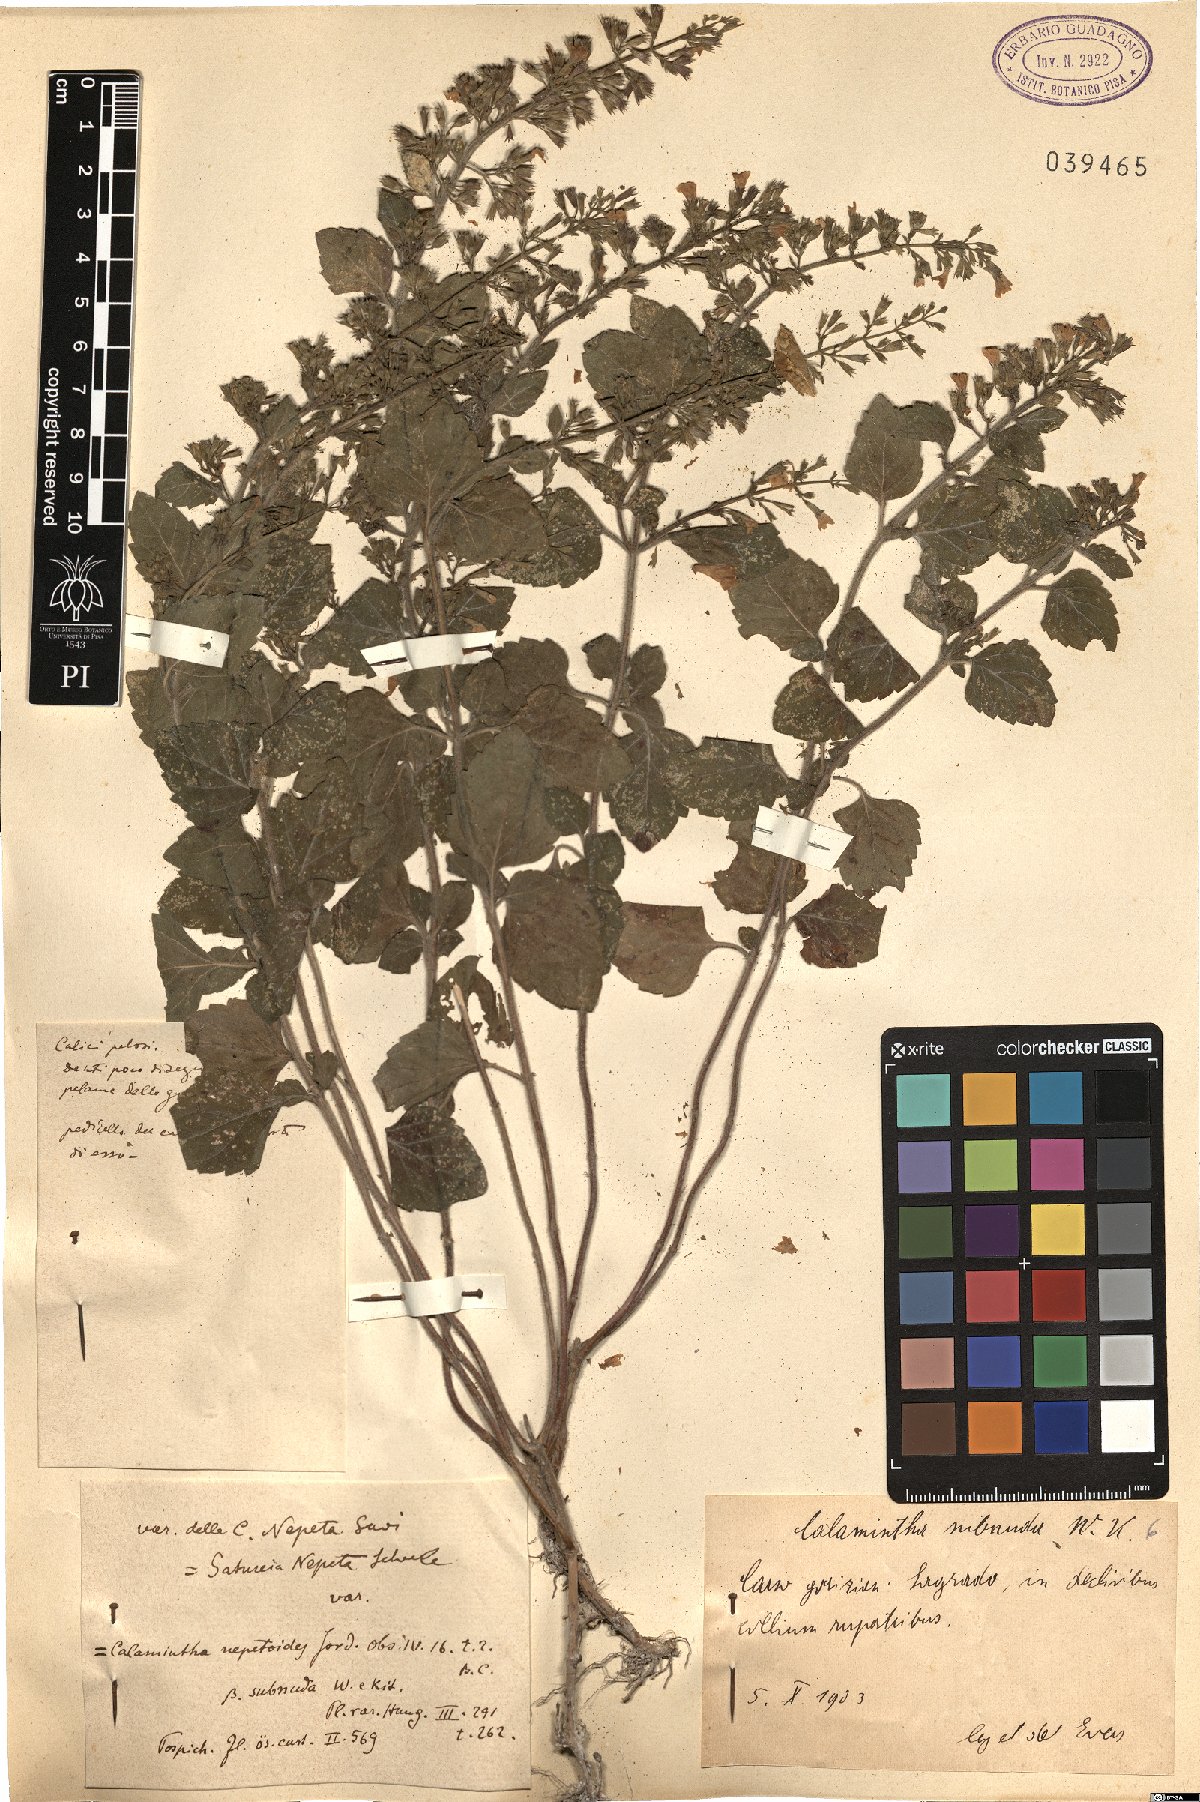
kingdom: Plantae
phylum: Tracheophyta
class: Magnoliopsida
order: Lamiales
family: Lamiaceae
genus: Clinopodium
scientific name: Clinopodium nepeta
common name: Lesser calamint
